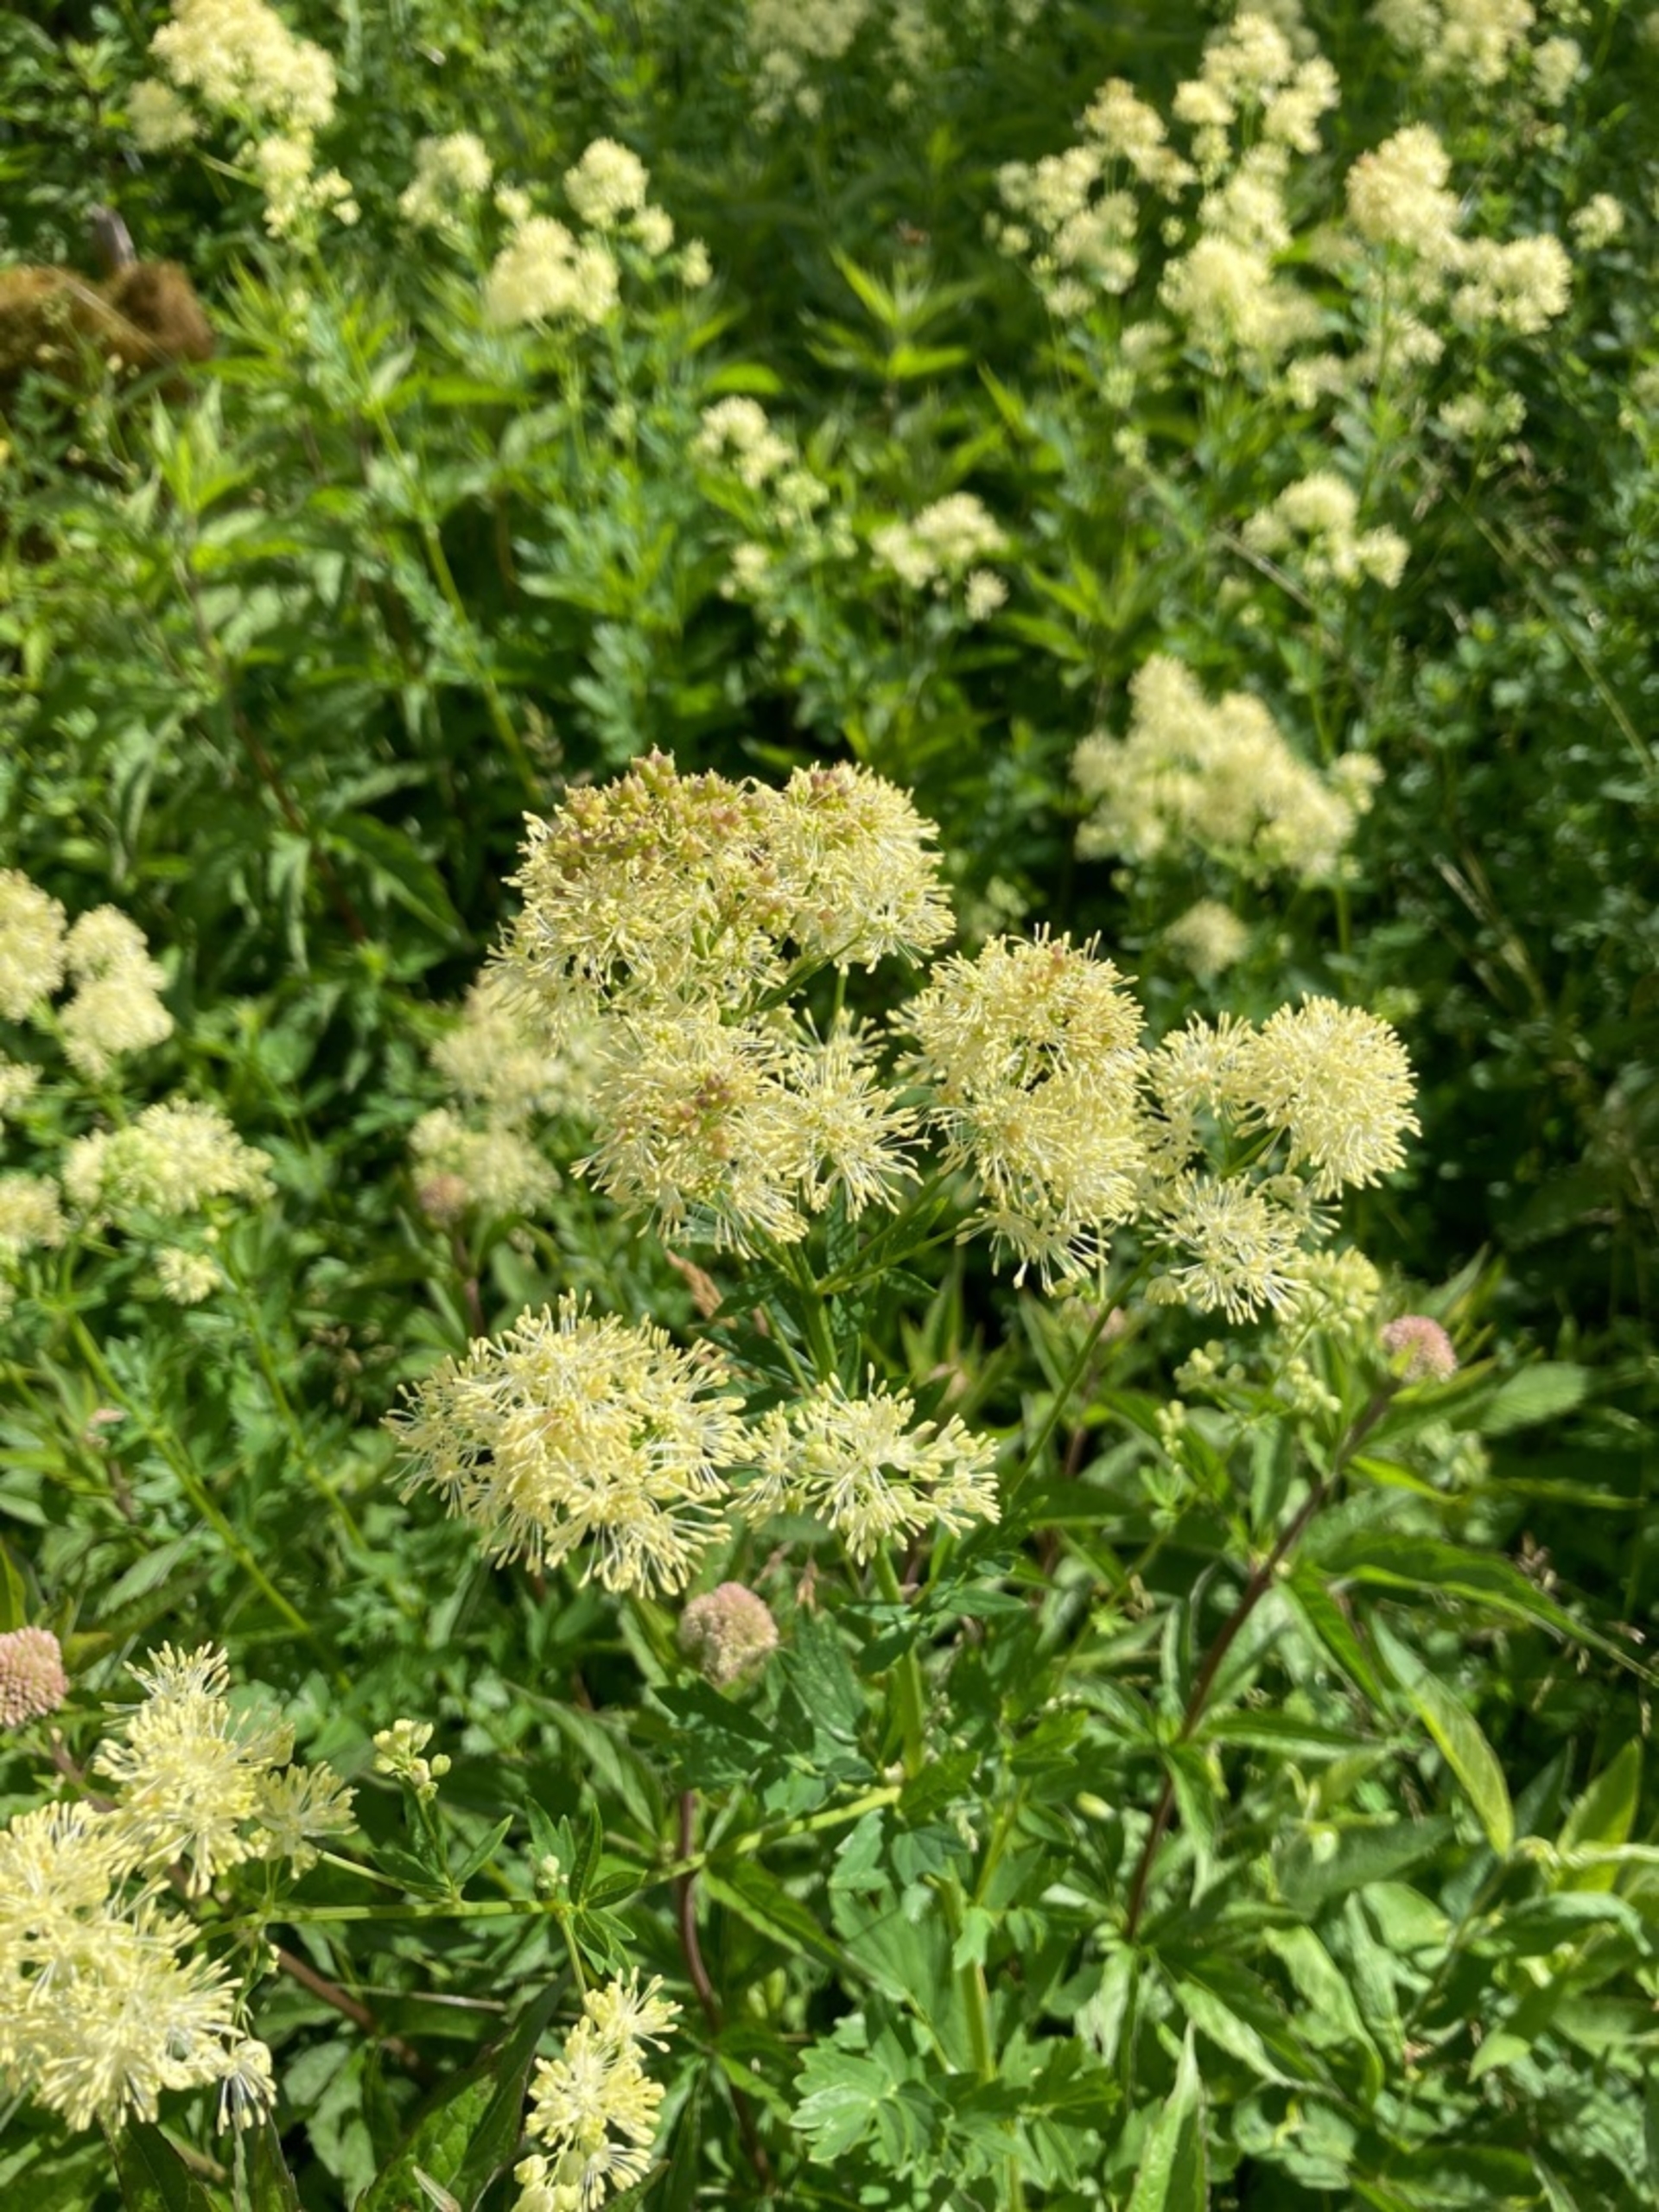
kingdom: Plantae
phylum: Tracheophyta
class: Magnoliopsida
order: Ranunculales
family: Ranunculaceae
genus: Thalictrum
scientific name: Thalictrum flavum
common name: Gul frøstjerne
